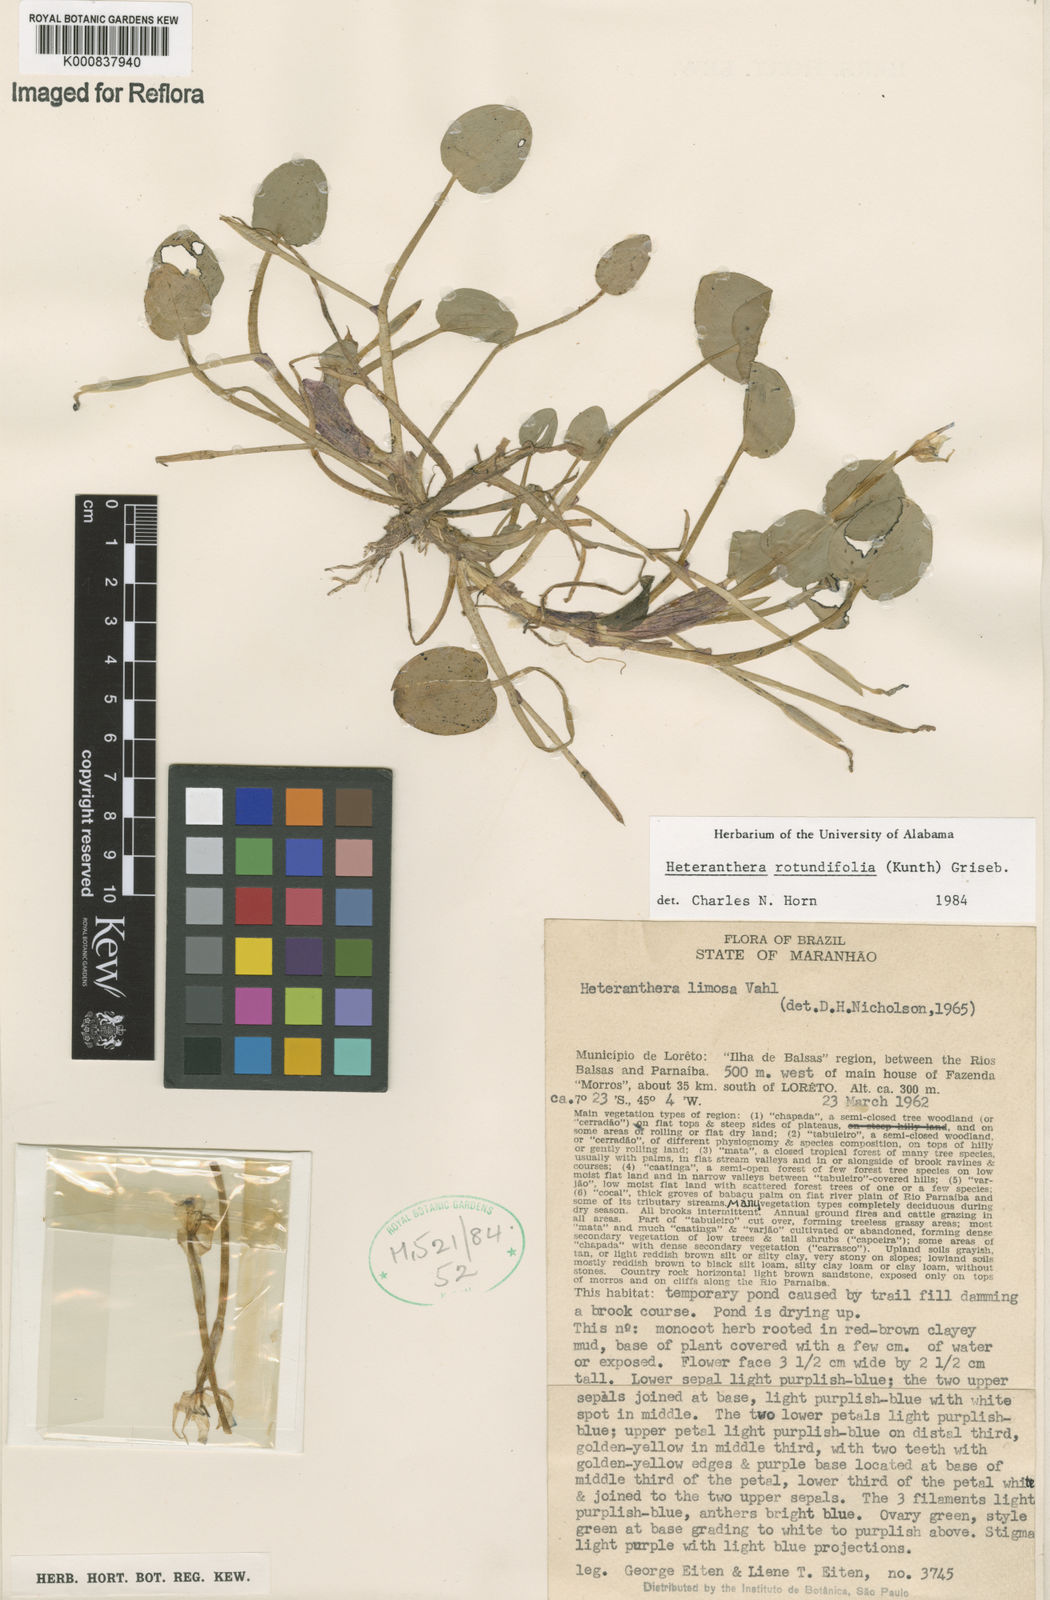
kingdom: Plantae
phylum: Tracheophyta
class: Liliopsida
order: Commelinales
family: Pontederiaceae
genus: Heteranthera
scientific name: Heteranthera rotundifolia
